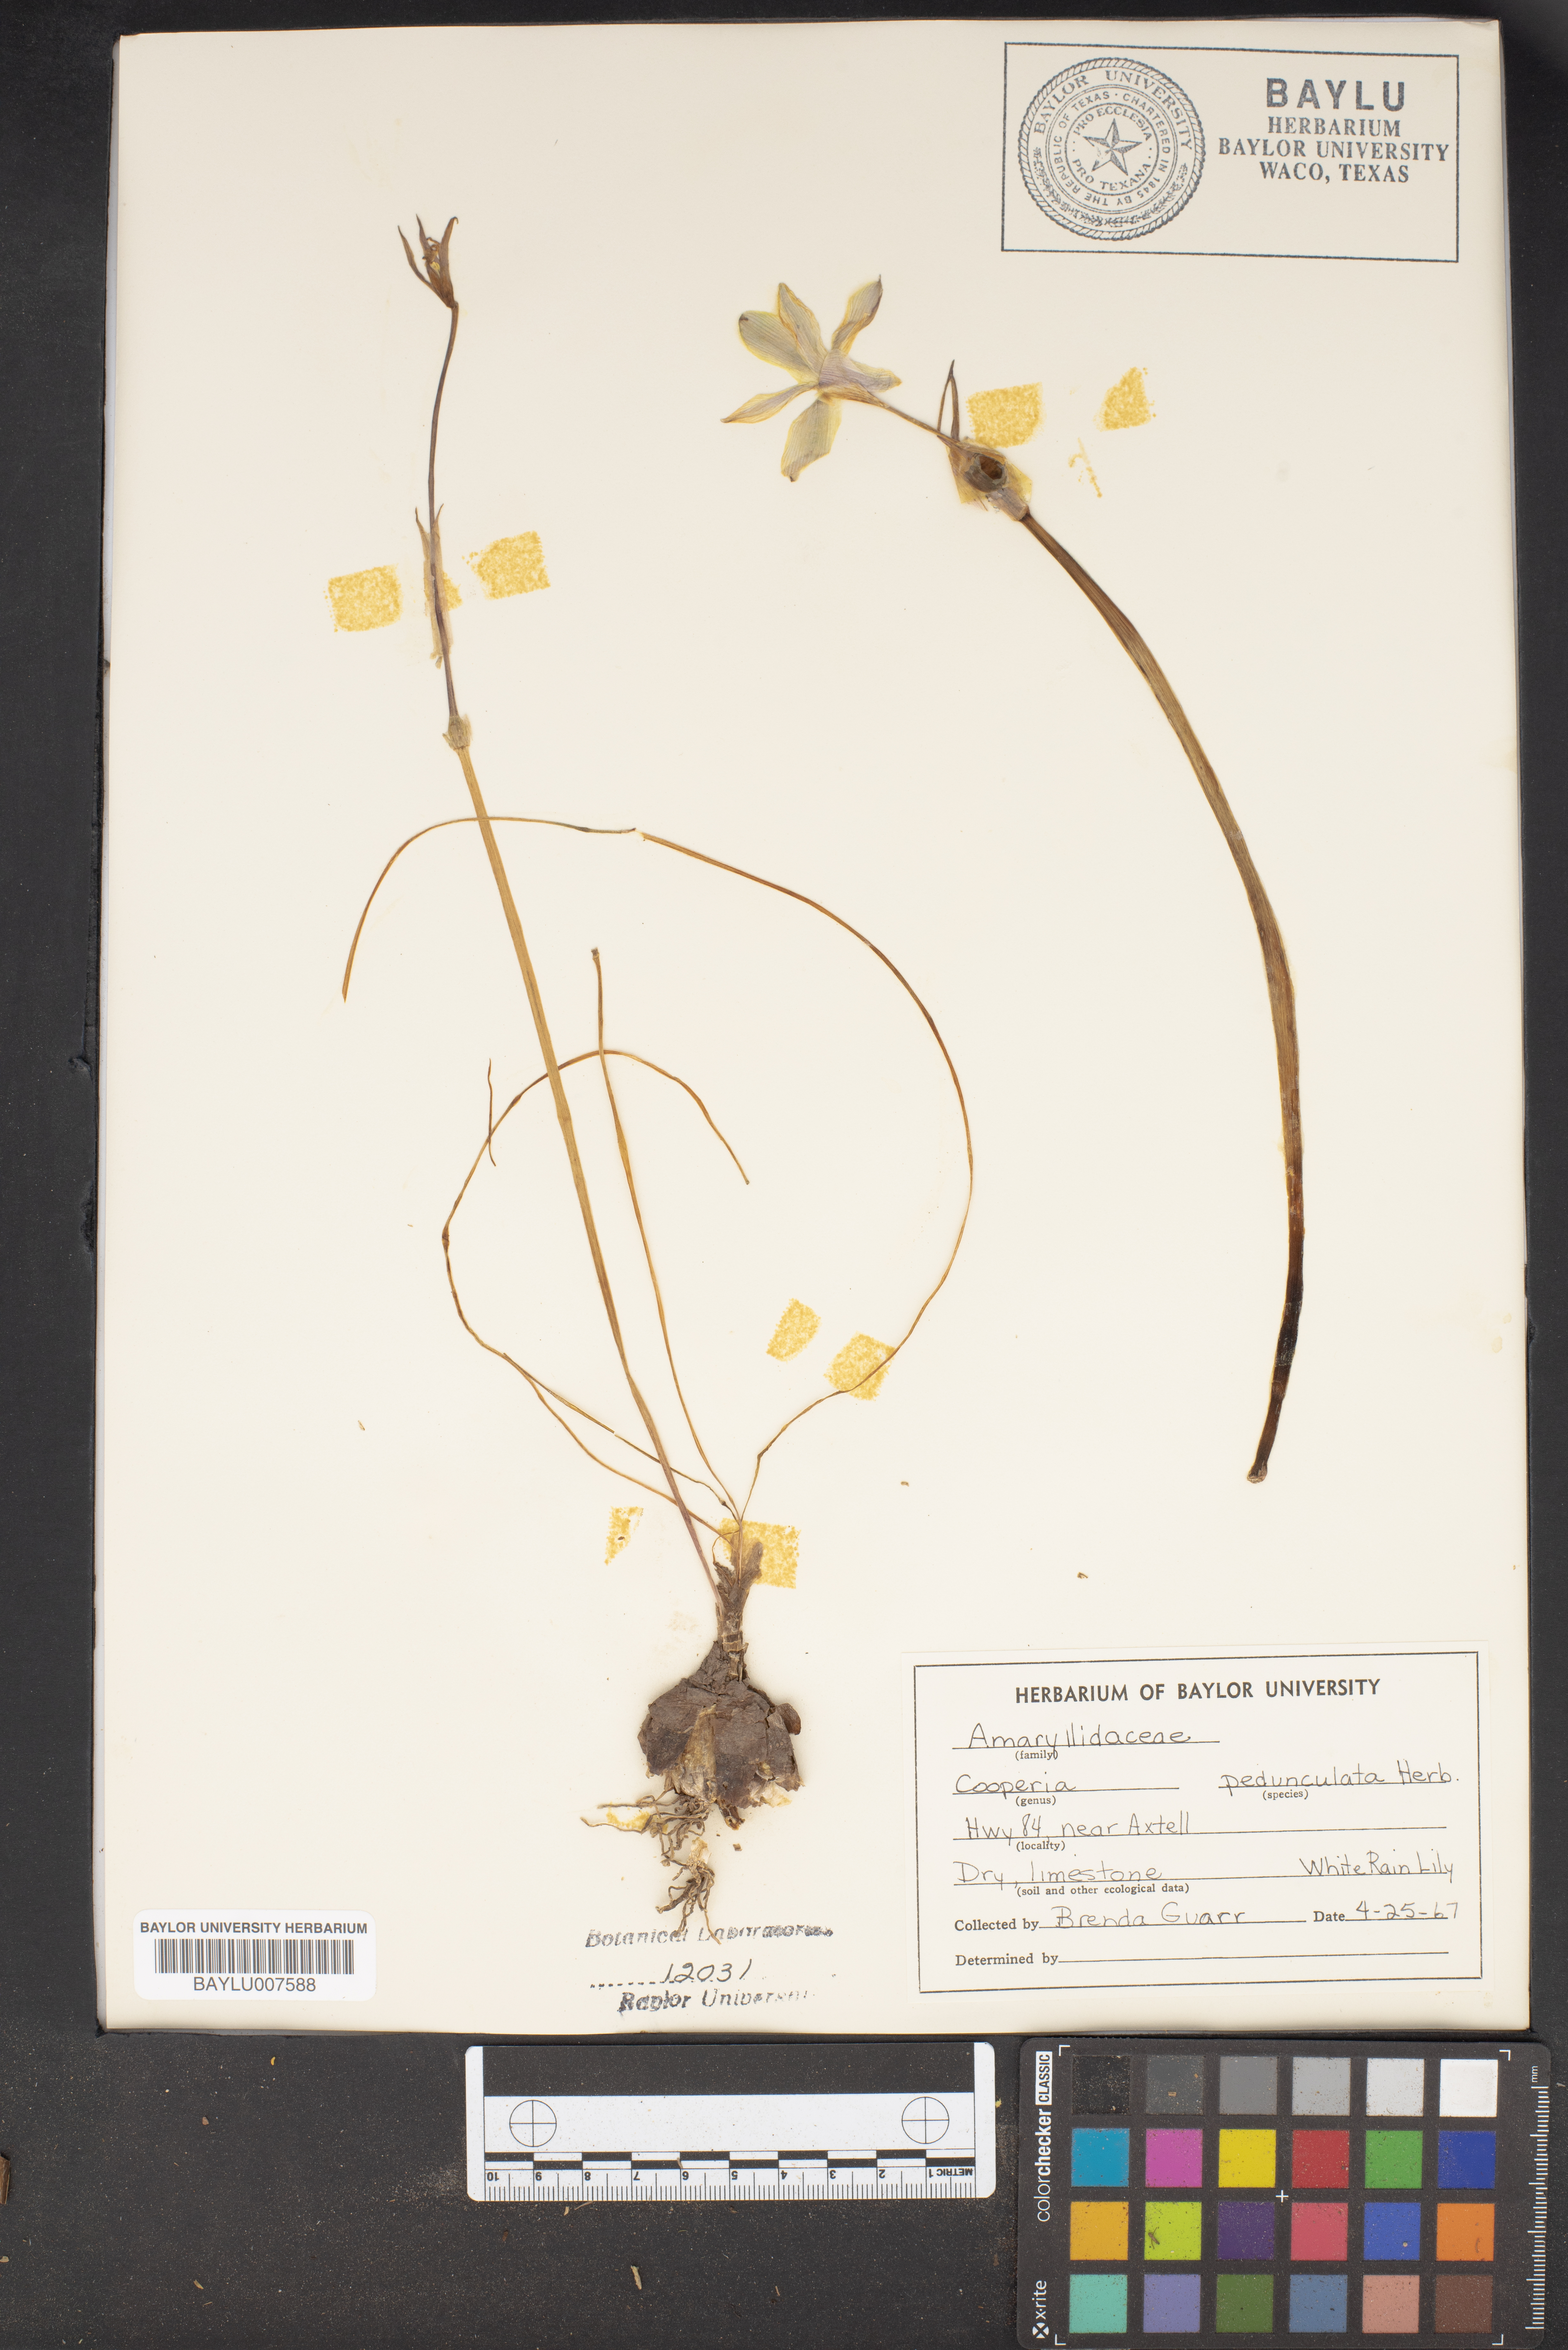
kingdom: Plantae
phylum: Tracheophyta
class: Liliopsida
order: Asparagales
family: Amaryllidaceae
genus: Zephyranthes
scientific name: Zephyranthes drummondii
